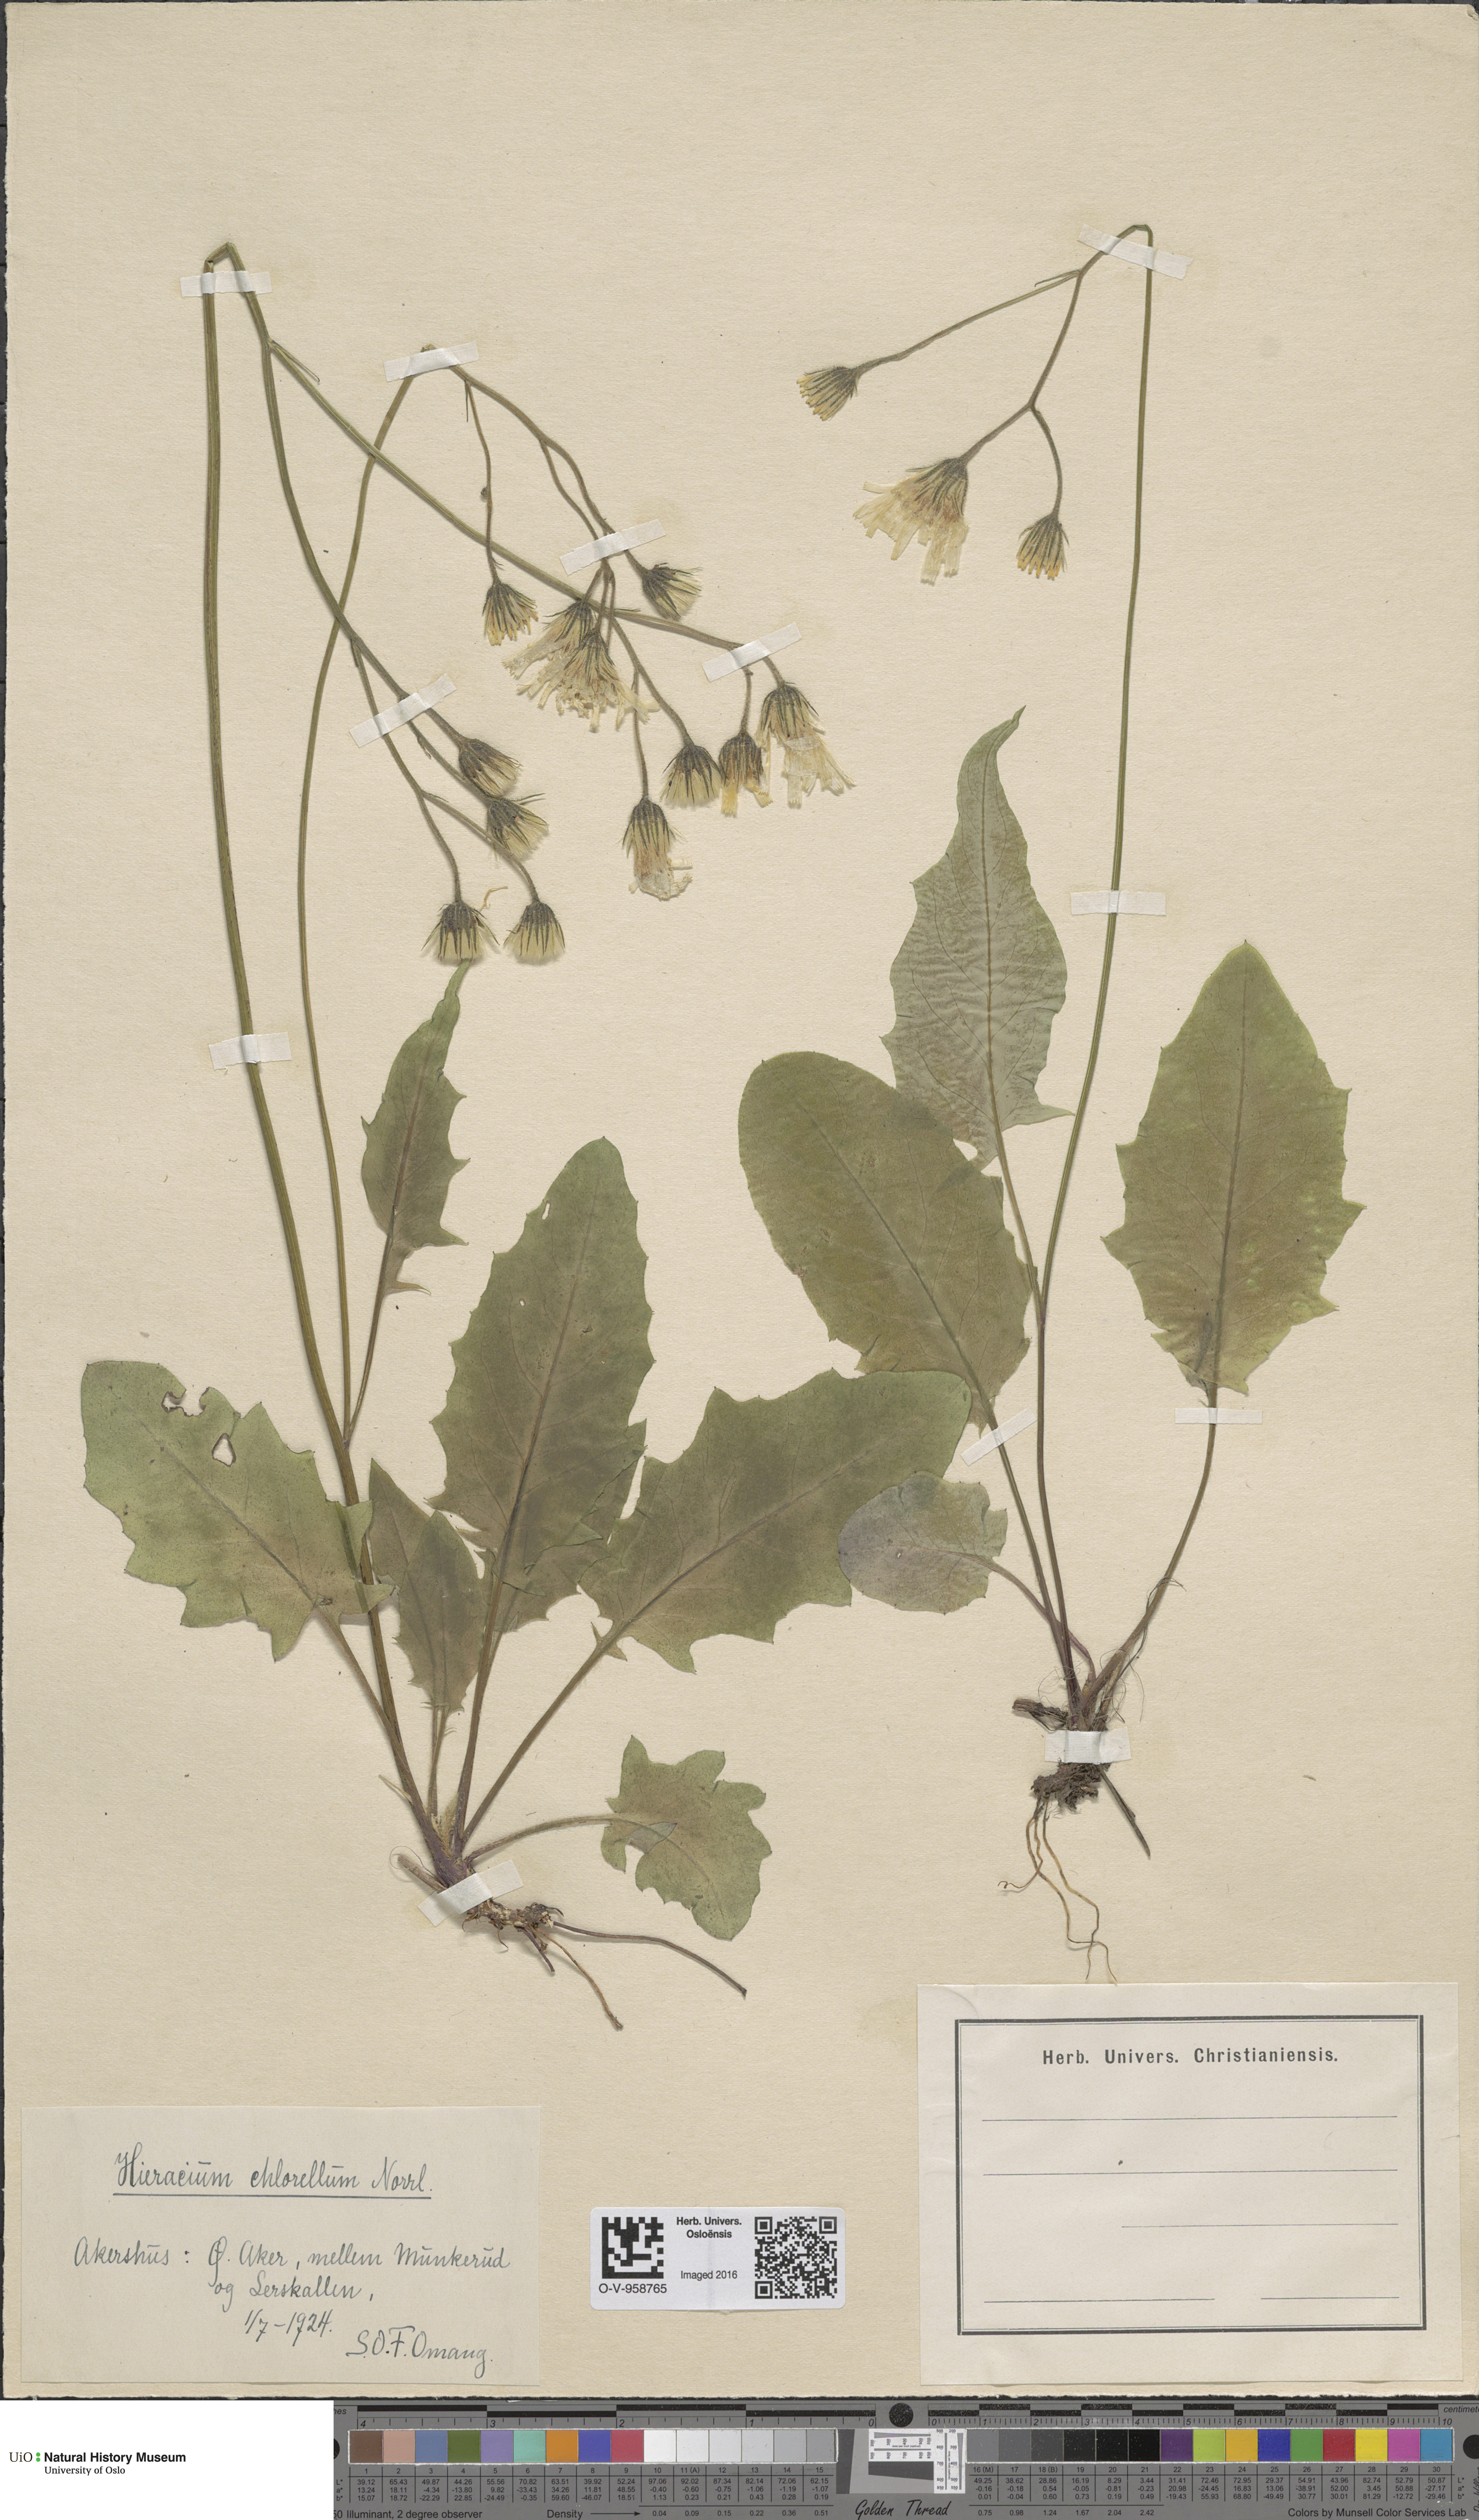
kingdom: Plantae
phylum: Tracheophyta
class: Magnoliopsida
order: Asterales
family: Asteraceae
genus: Hieracium
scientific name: Hieracium chlorellum
